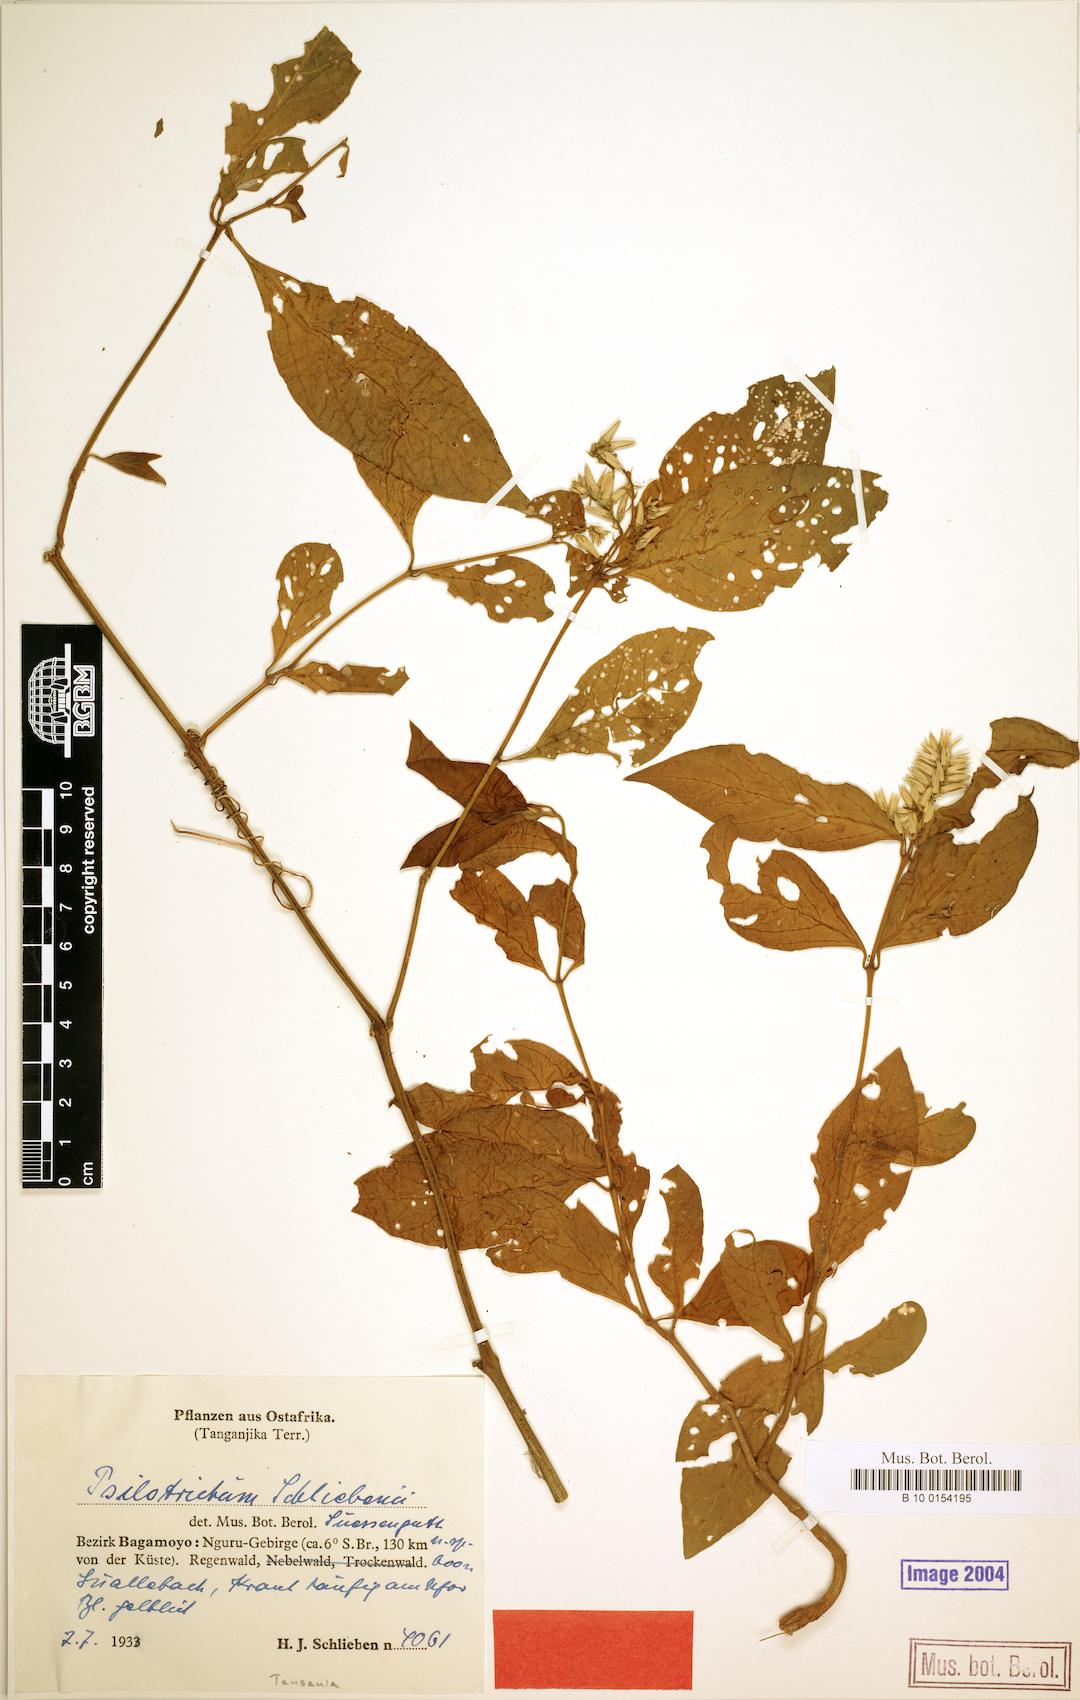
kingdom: Plantae
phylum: Tracheophyta
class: Magnoliopsida
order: Caryophyllales
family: Amaranthaceae
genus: Psilotrichum
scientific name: Psilotrichum
